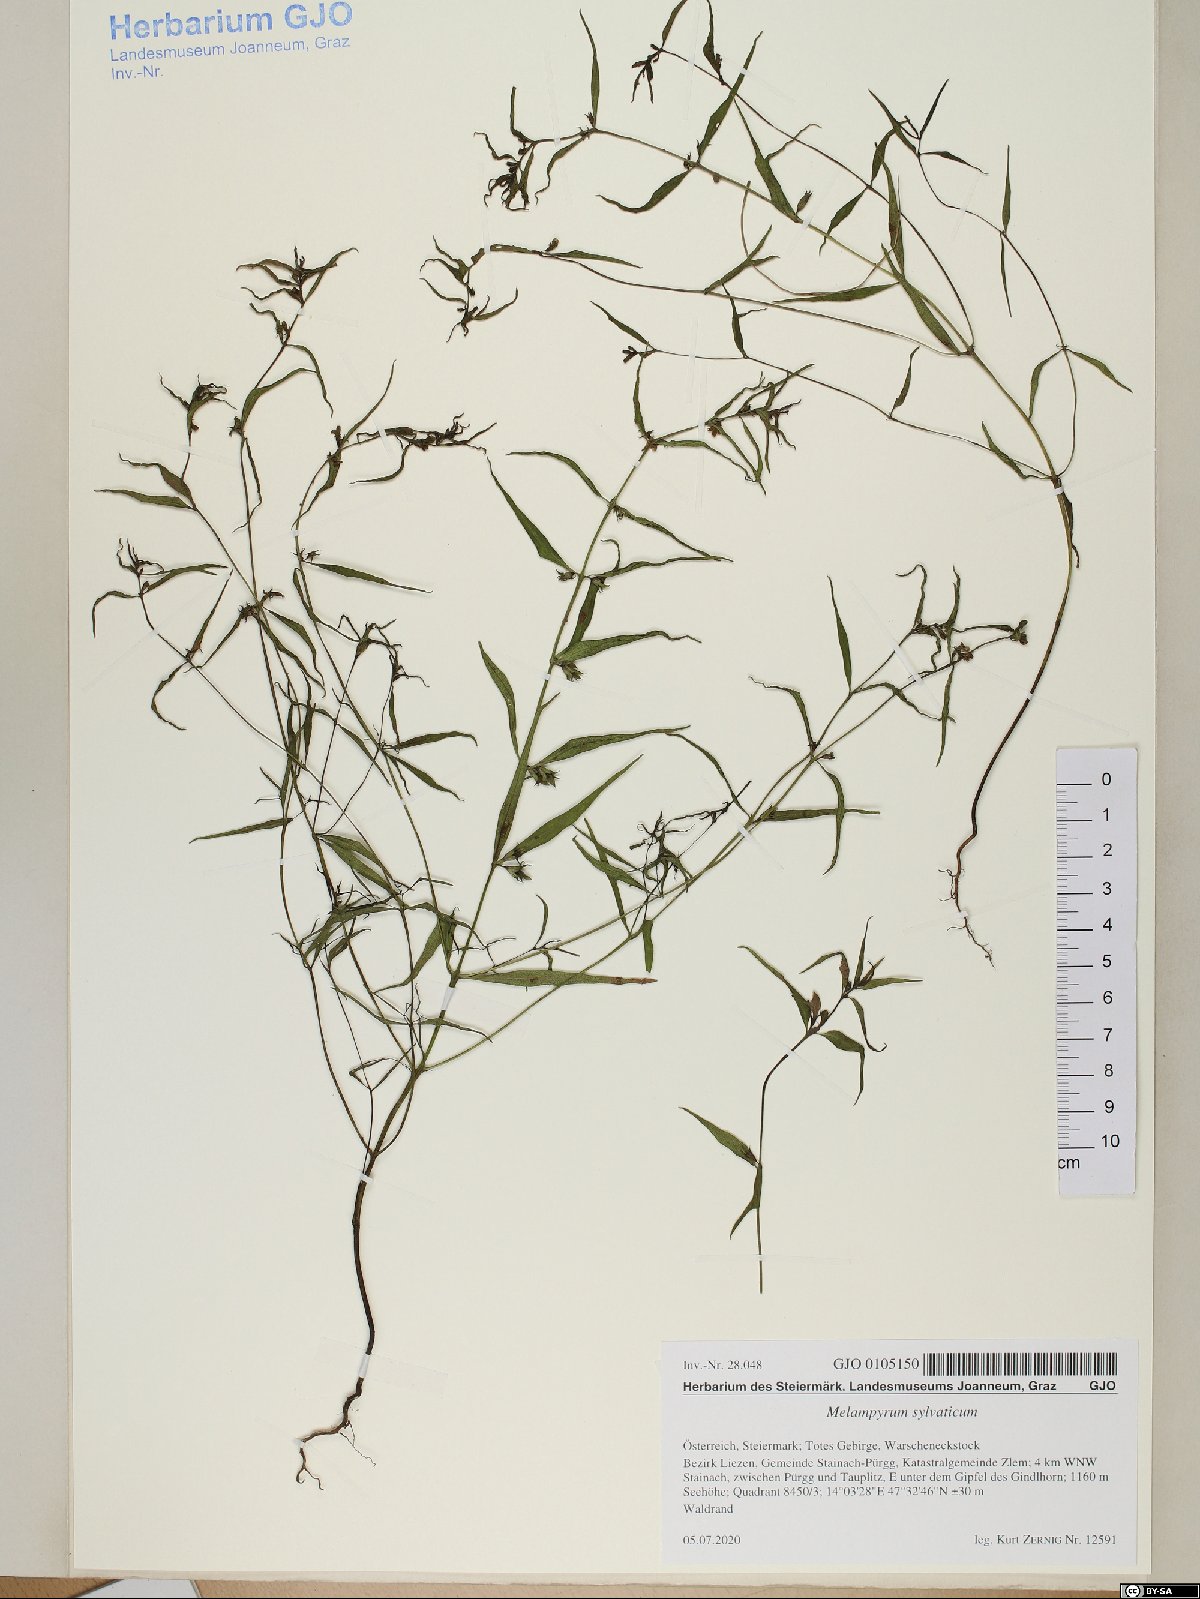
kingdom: Plantae
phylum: Tracheophyta
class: Magnoliopsida
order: Lamiales
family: Orobanchaceae
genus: Melampyrum
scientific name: Melampyrum sylvaticum
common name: Small cow-wheat
